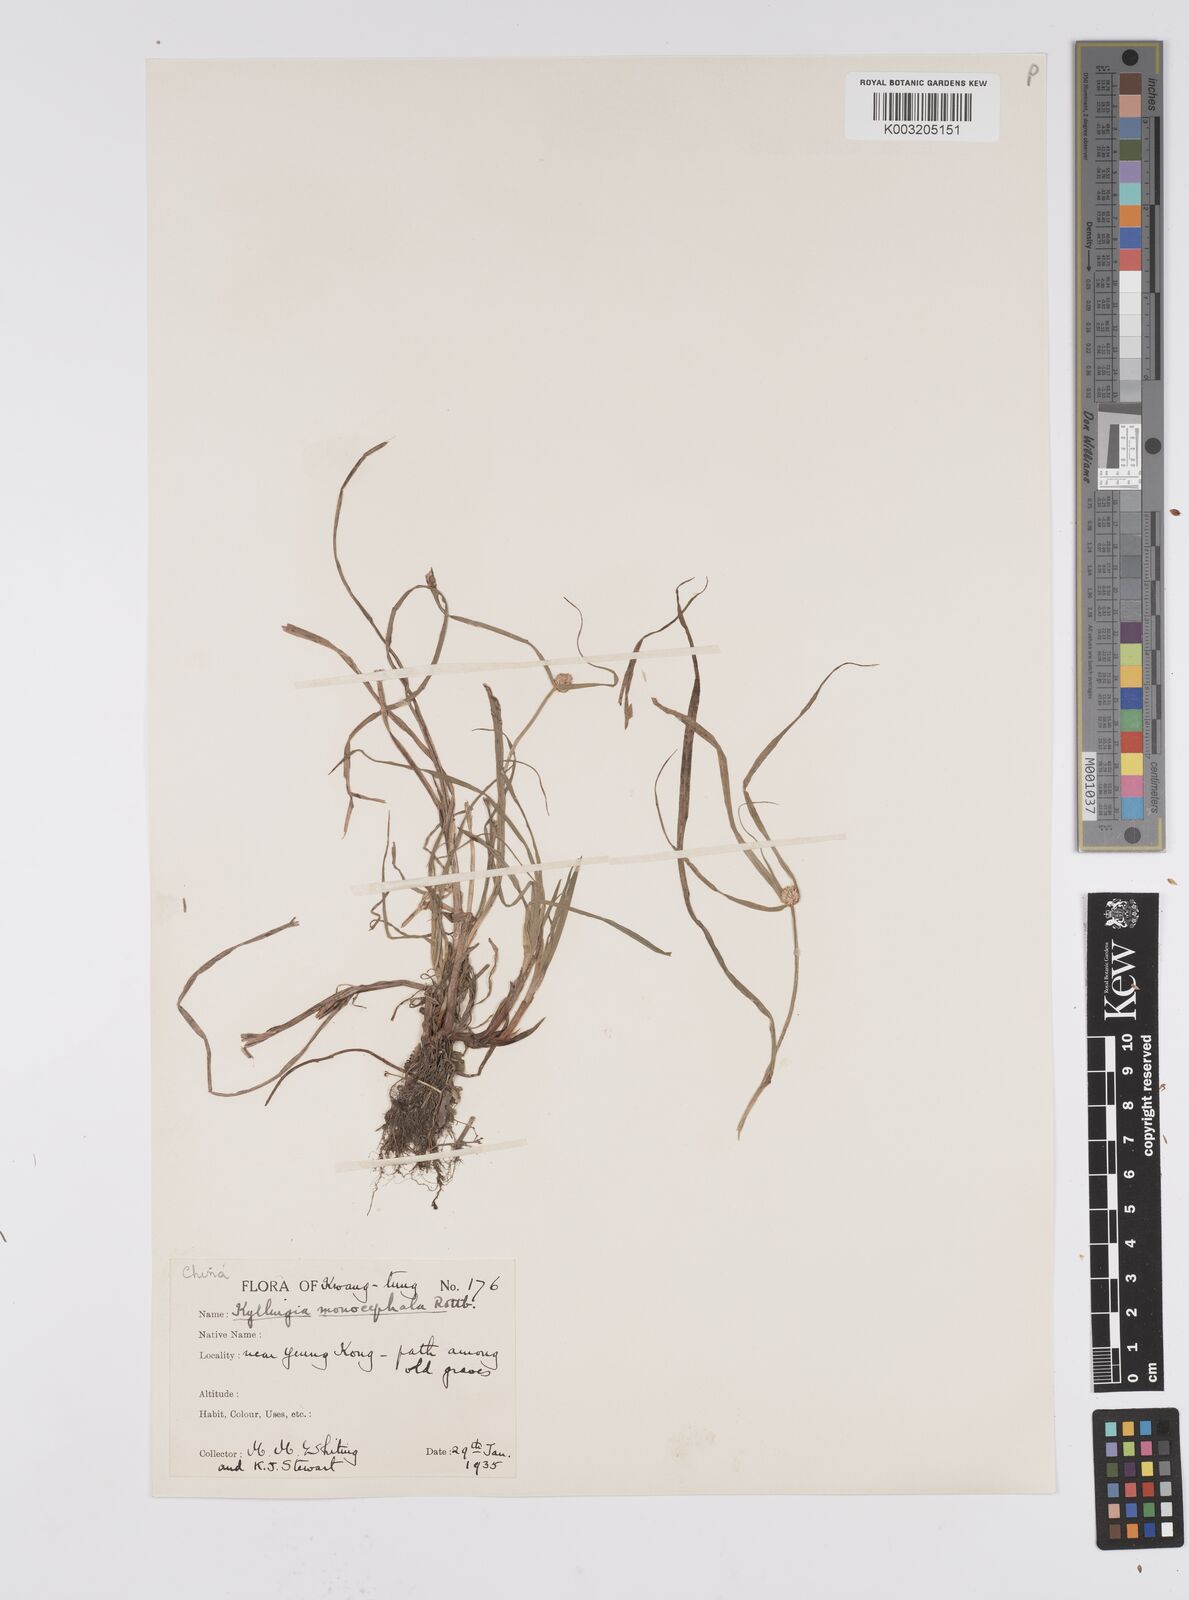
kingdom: Plantae
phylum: Tracheophyta
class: Liliopsida
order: Poales
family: Cyperaceae
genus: Cyperus
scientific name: Cyperus nemoralis
